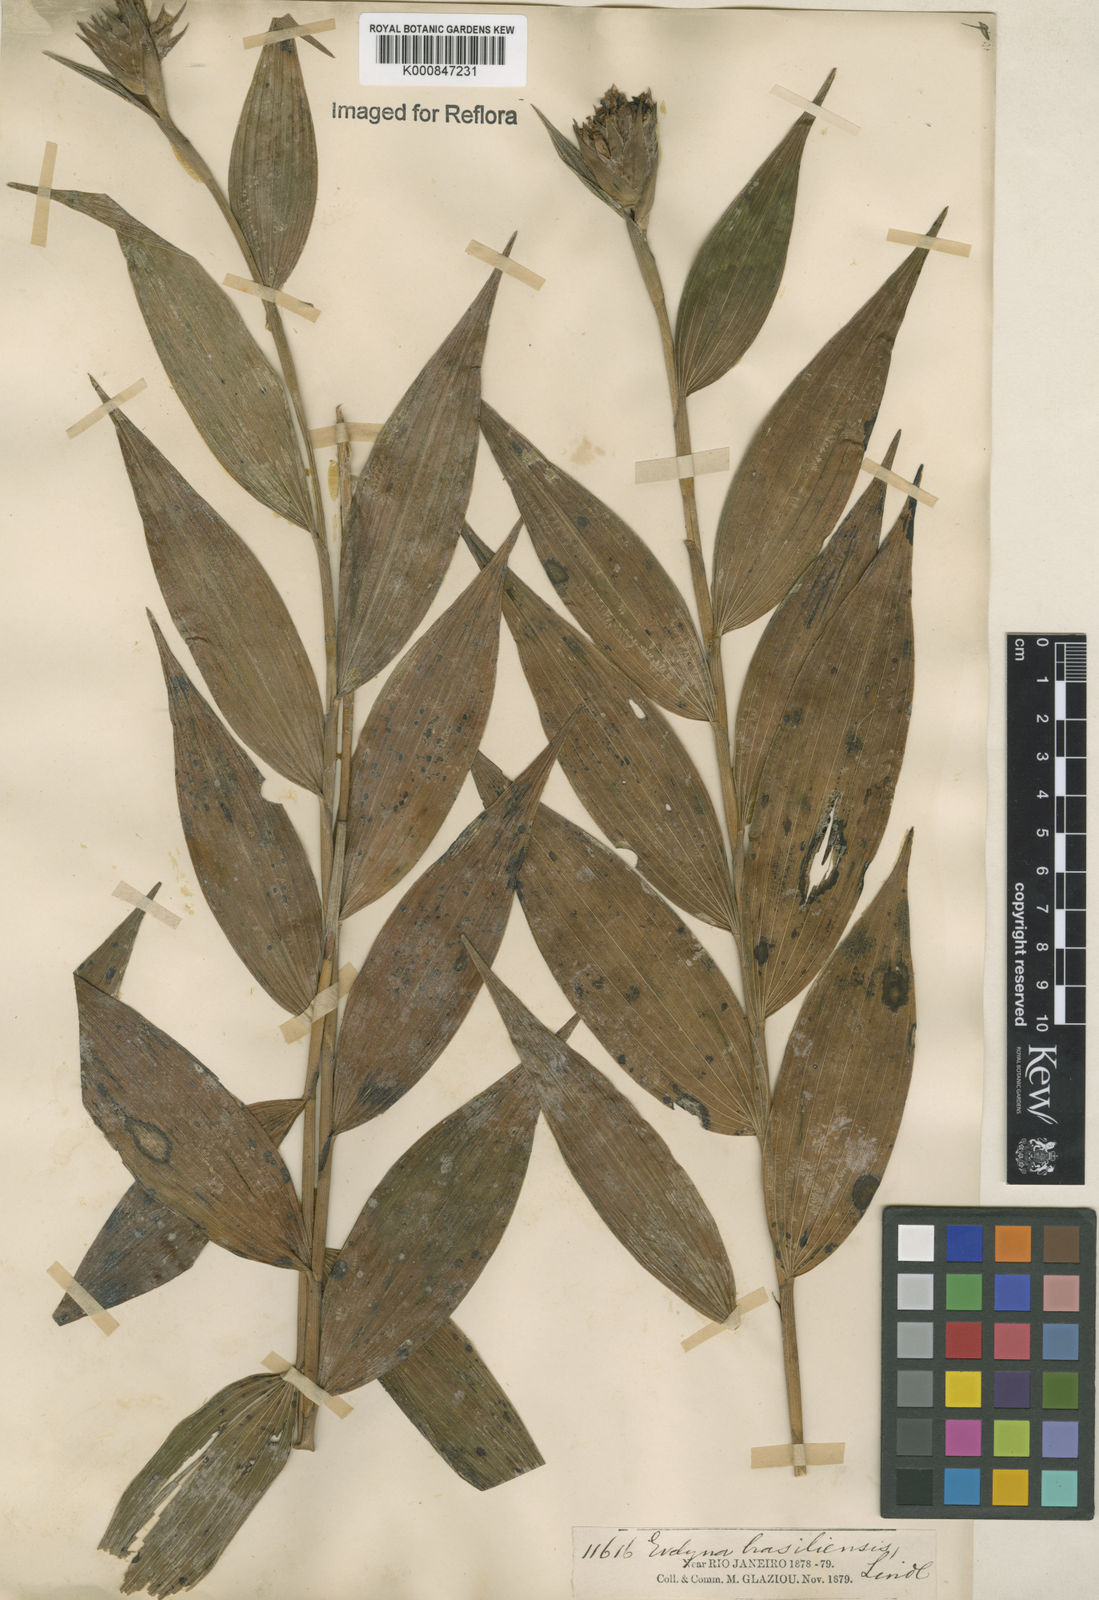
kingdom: Plantae
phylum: Tracheophyta
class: Liliopsida
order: Asparagales
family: Orchidaceae
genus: Elleanthus
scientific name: Elleanthus brasiliensis
